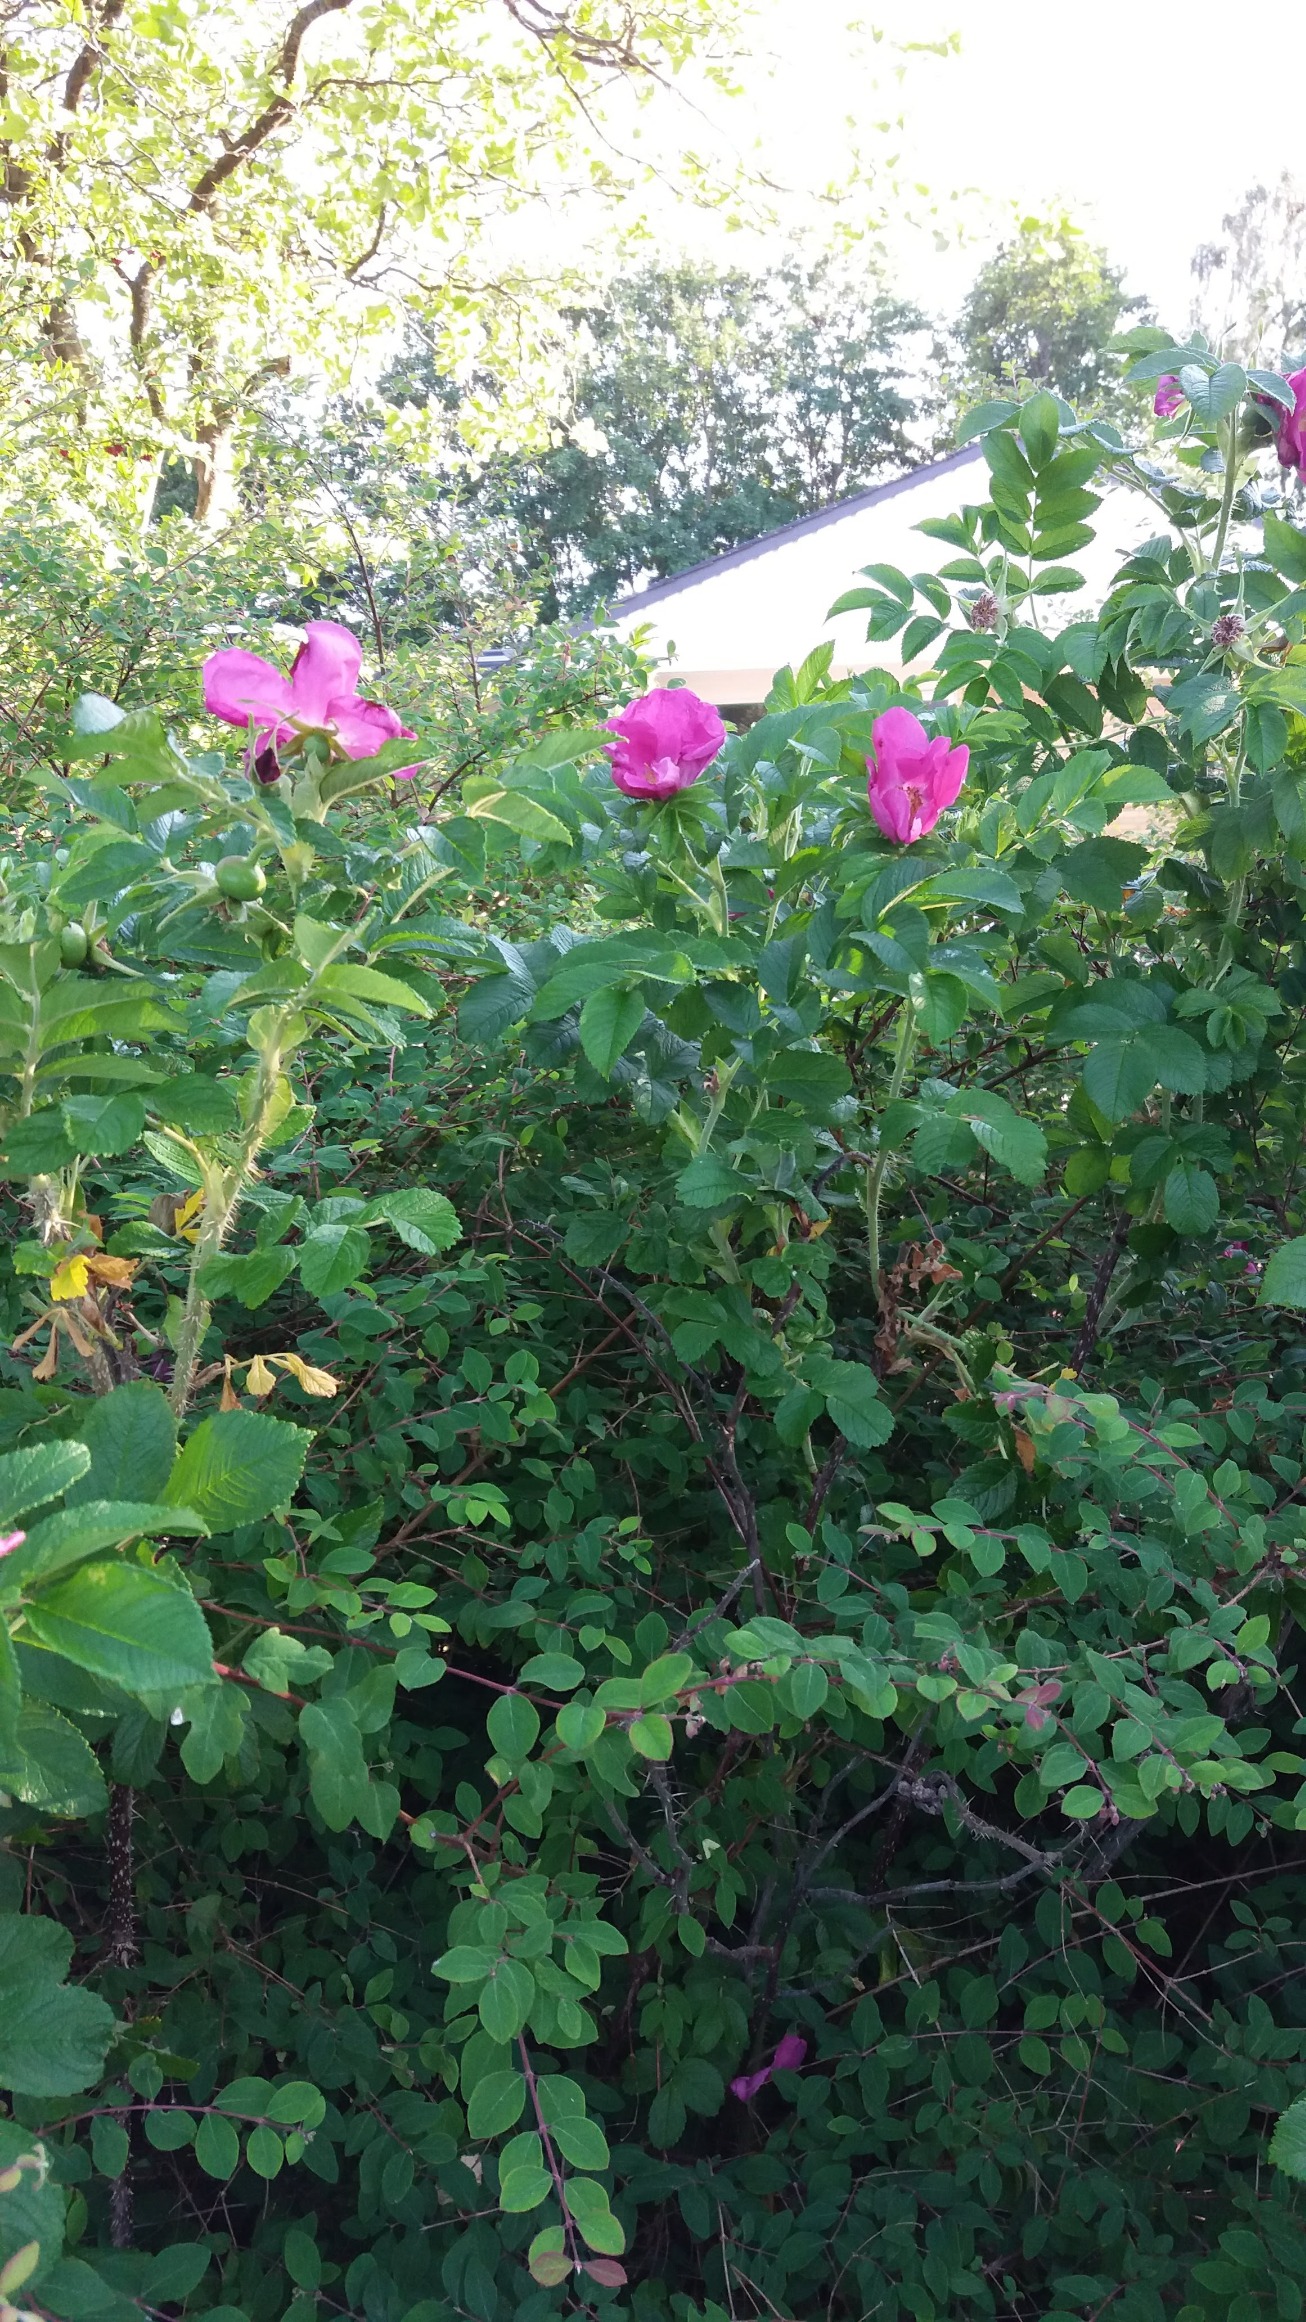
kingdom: Plantae
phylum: Tracheophyta
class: Magnoliopsida
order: Rosales
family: Rosaceae
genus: Rosa
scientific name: Rosa rugosa
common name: Rynket rose
